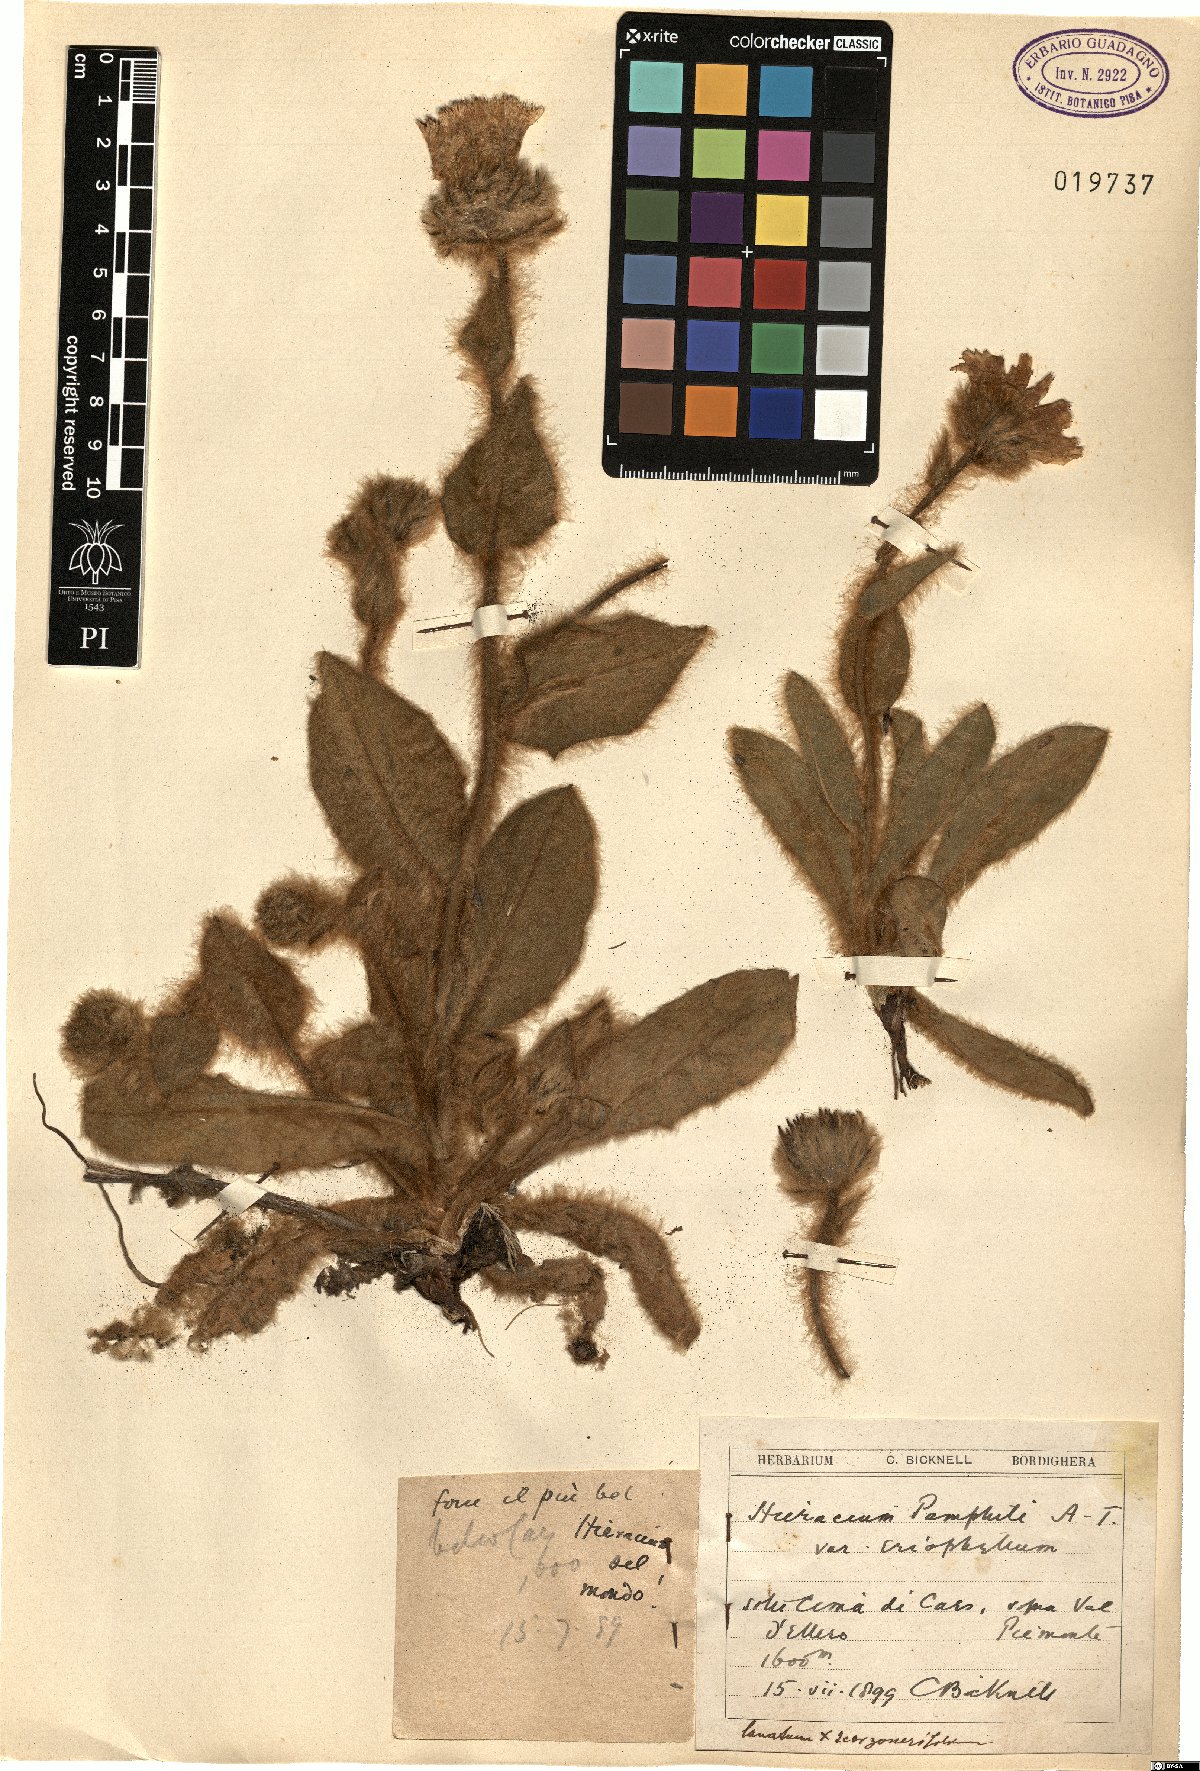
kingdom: Plantae
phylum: Tracheophyta
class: Magnoliopsida
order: Asterales
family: Asteraceae
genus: Hieracium
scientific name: Hieracium pamphilii
